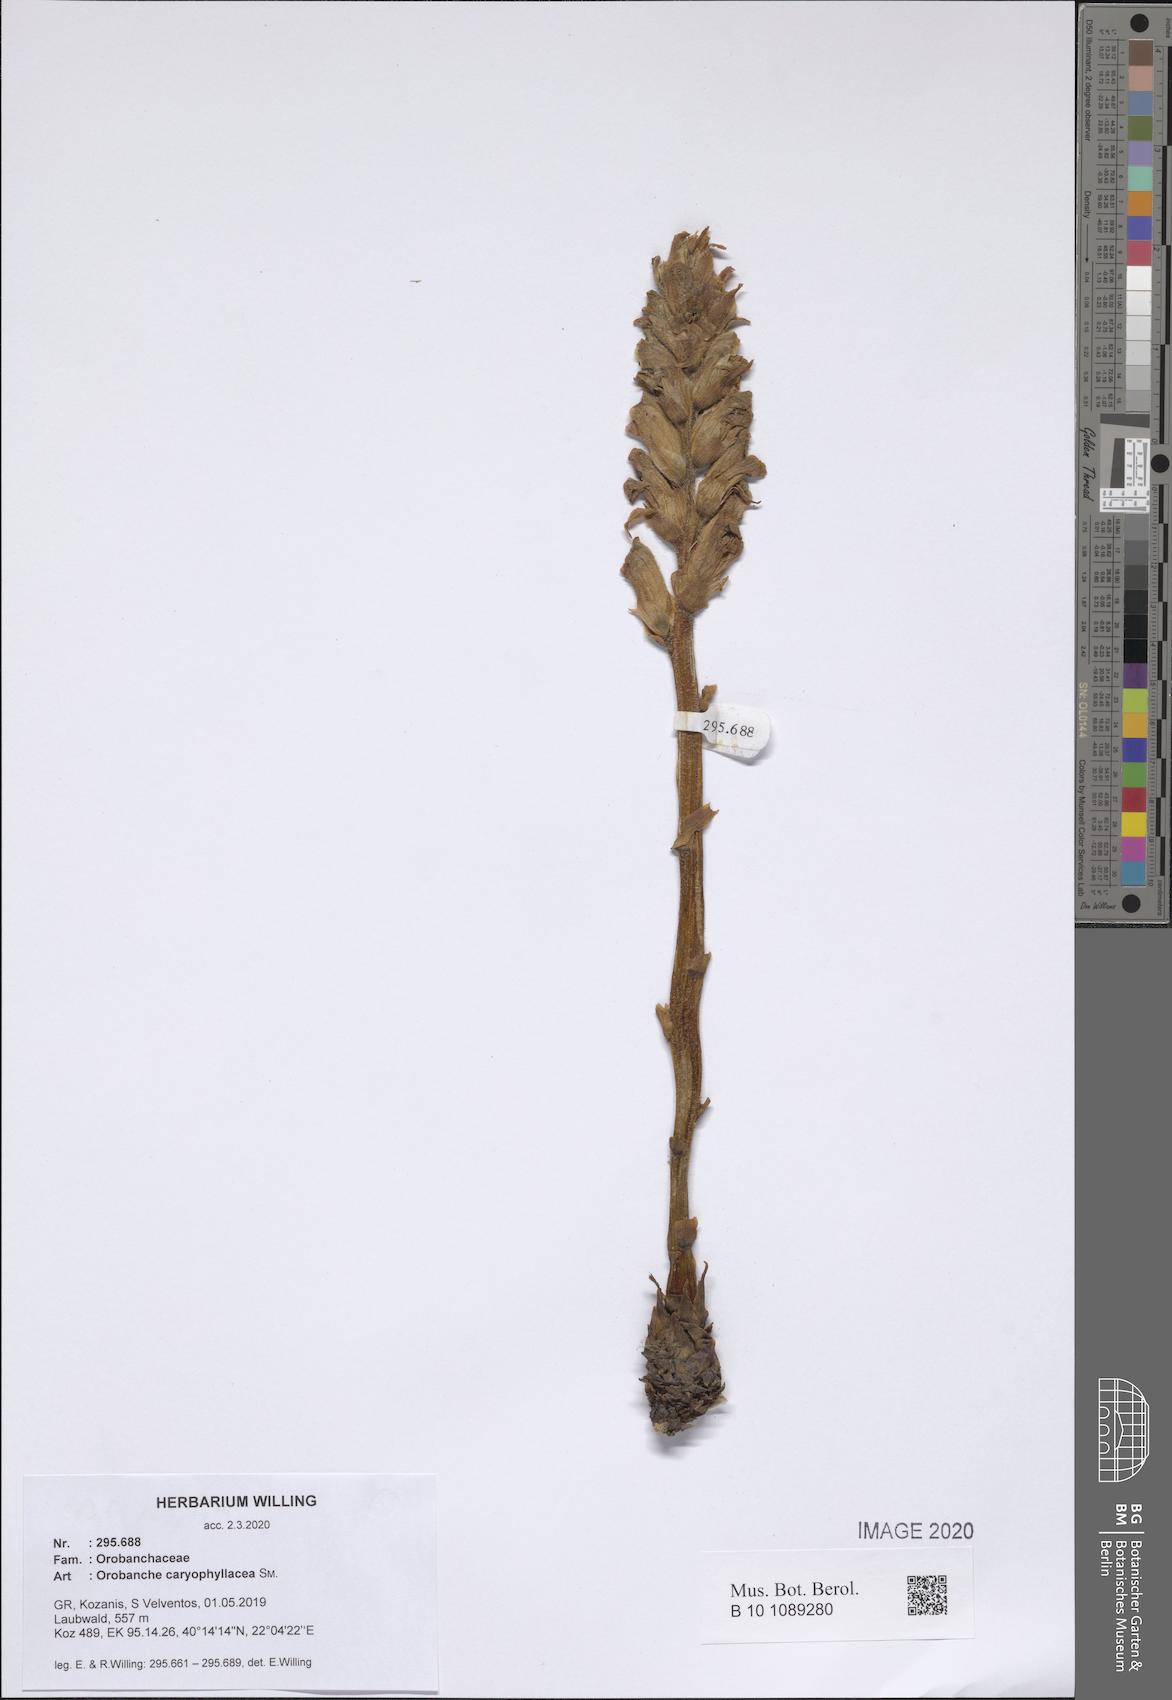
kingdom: Plantae
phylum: Tracheophyta
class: Magnoliopsida
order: Lamiales
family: Orobanchaceae
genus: Orobanche
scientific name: Orobanche caryophyllacea
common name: Bedstraw broomrape
